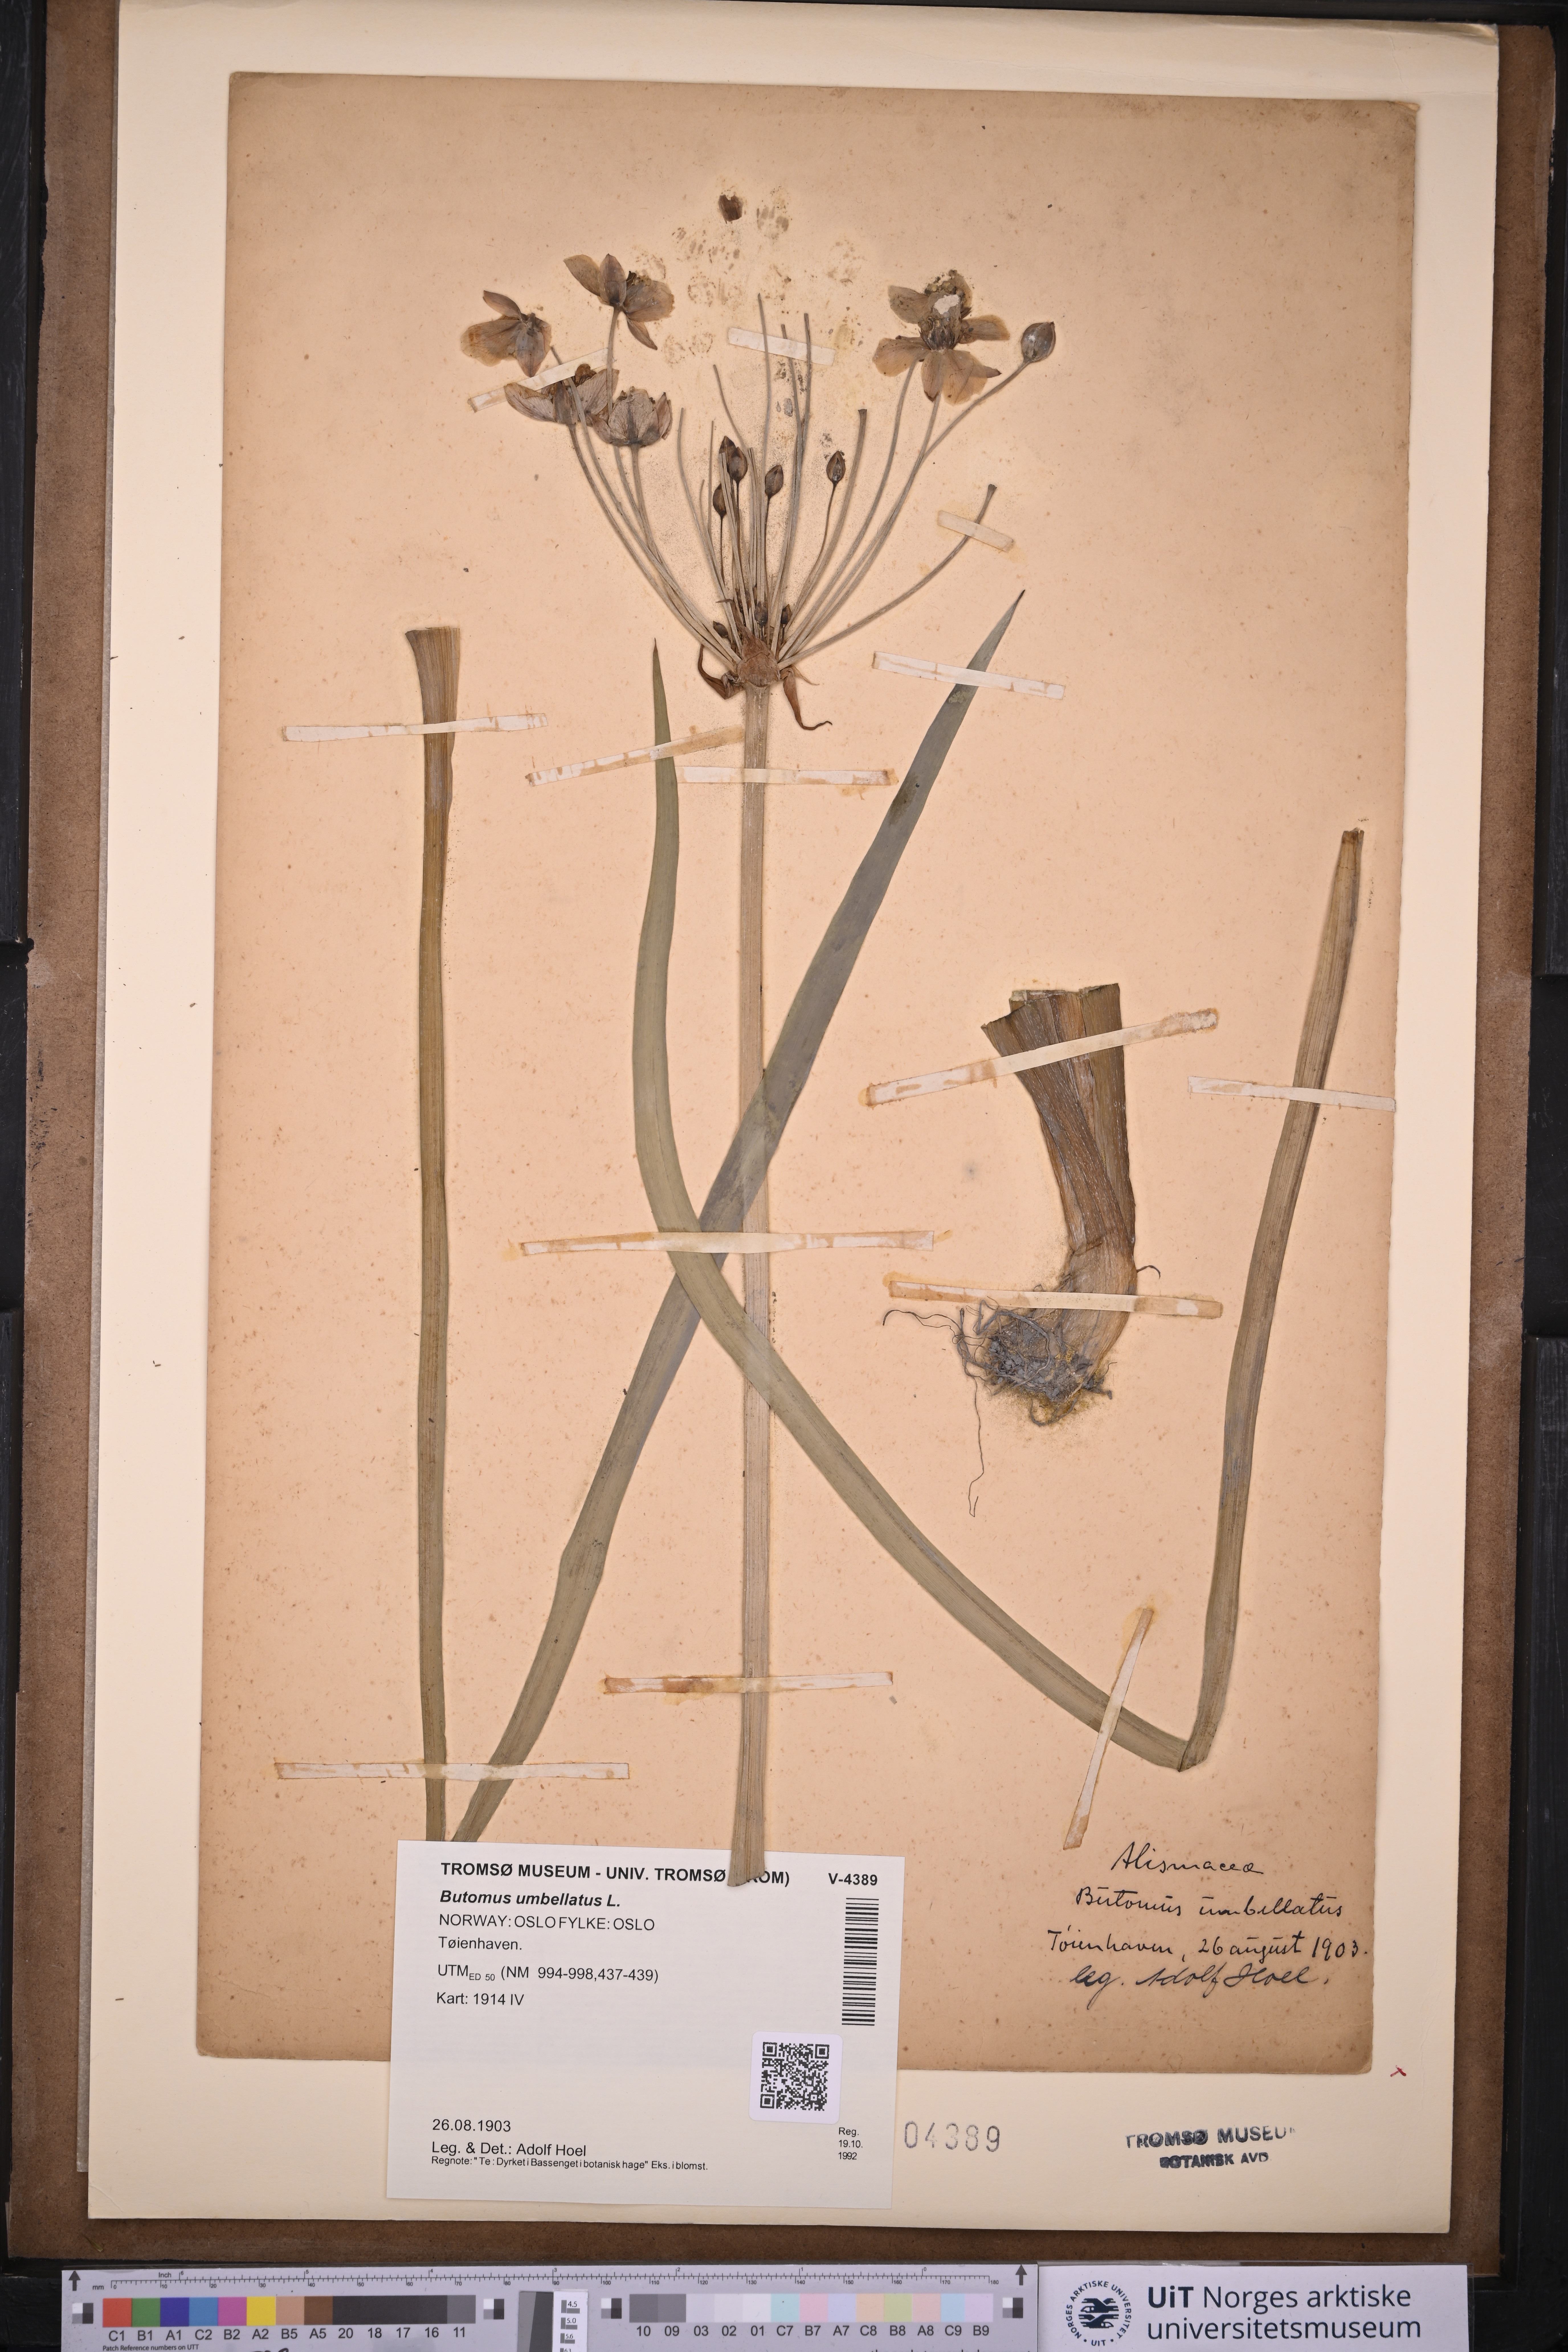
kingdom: Plantae
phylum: Tracheophyta
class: Liliopsida
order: Alismatales
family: Butomaceae
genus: Butomus
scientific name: Butomus umbellatus
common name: Flowering-rush
